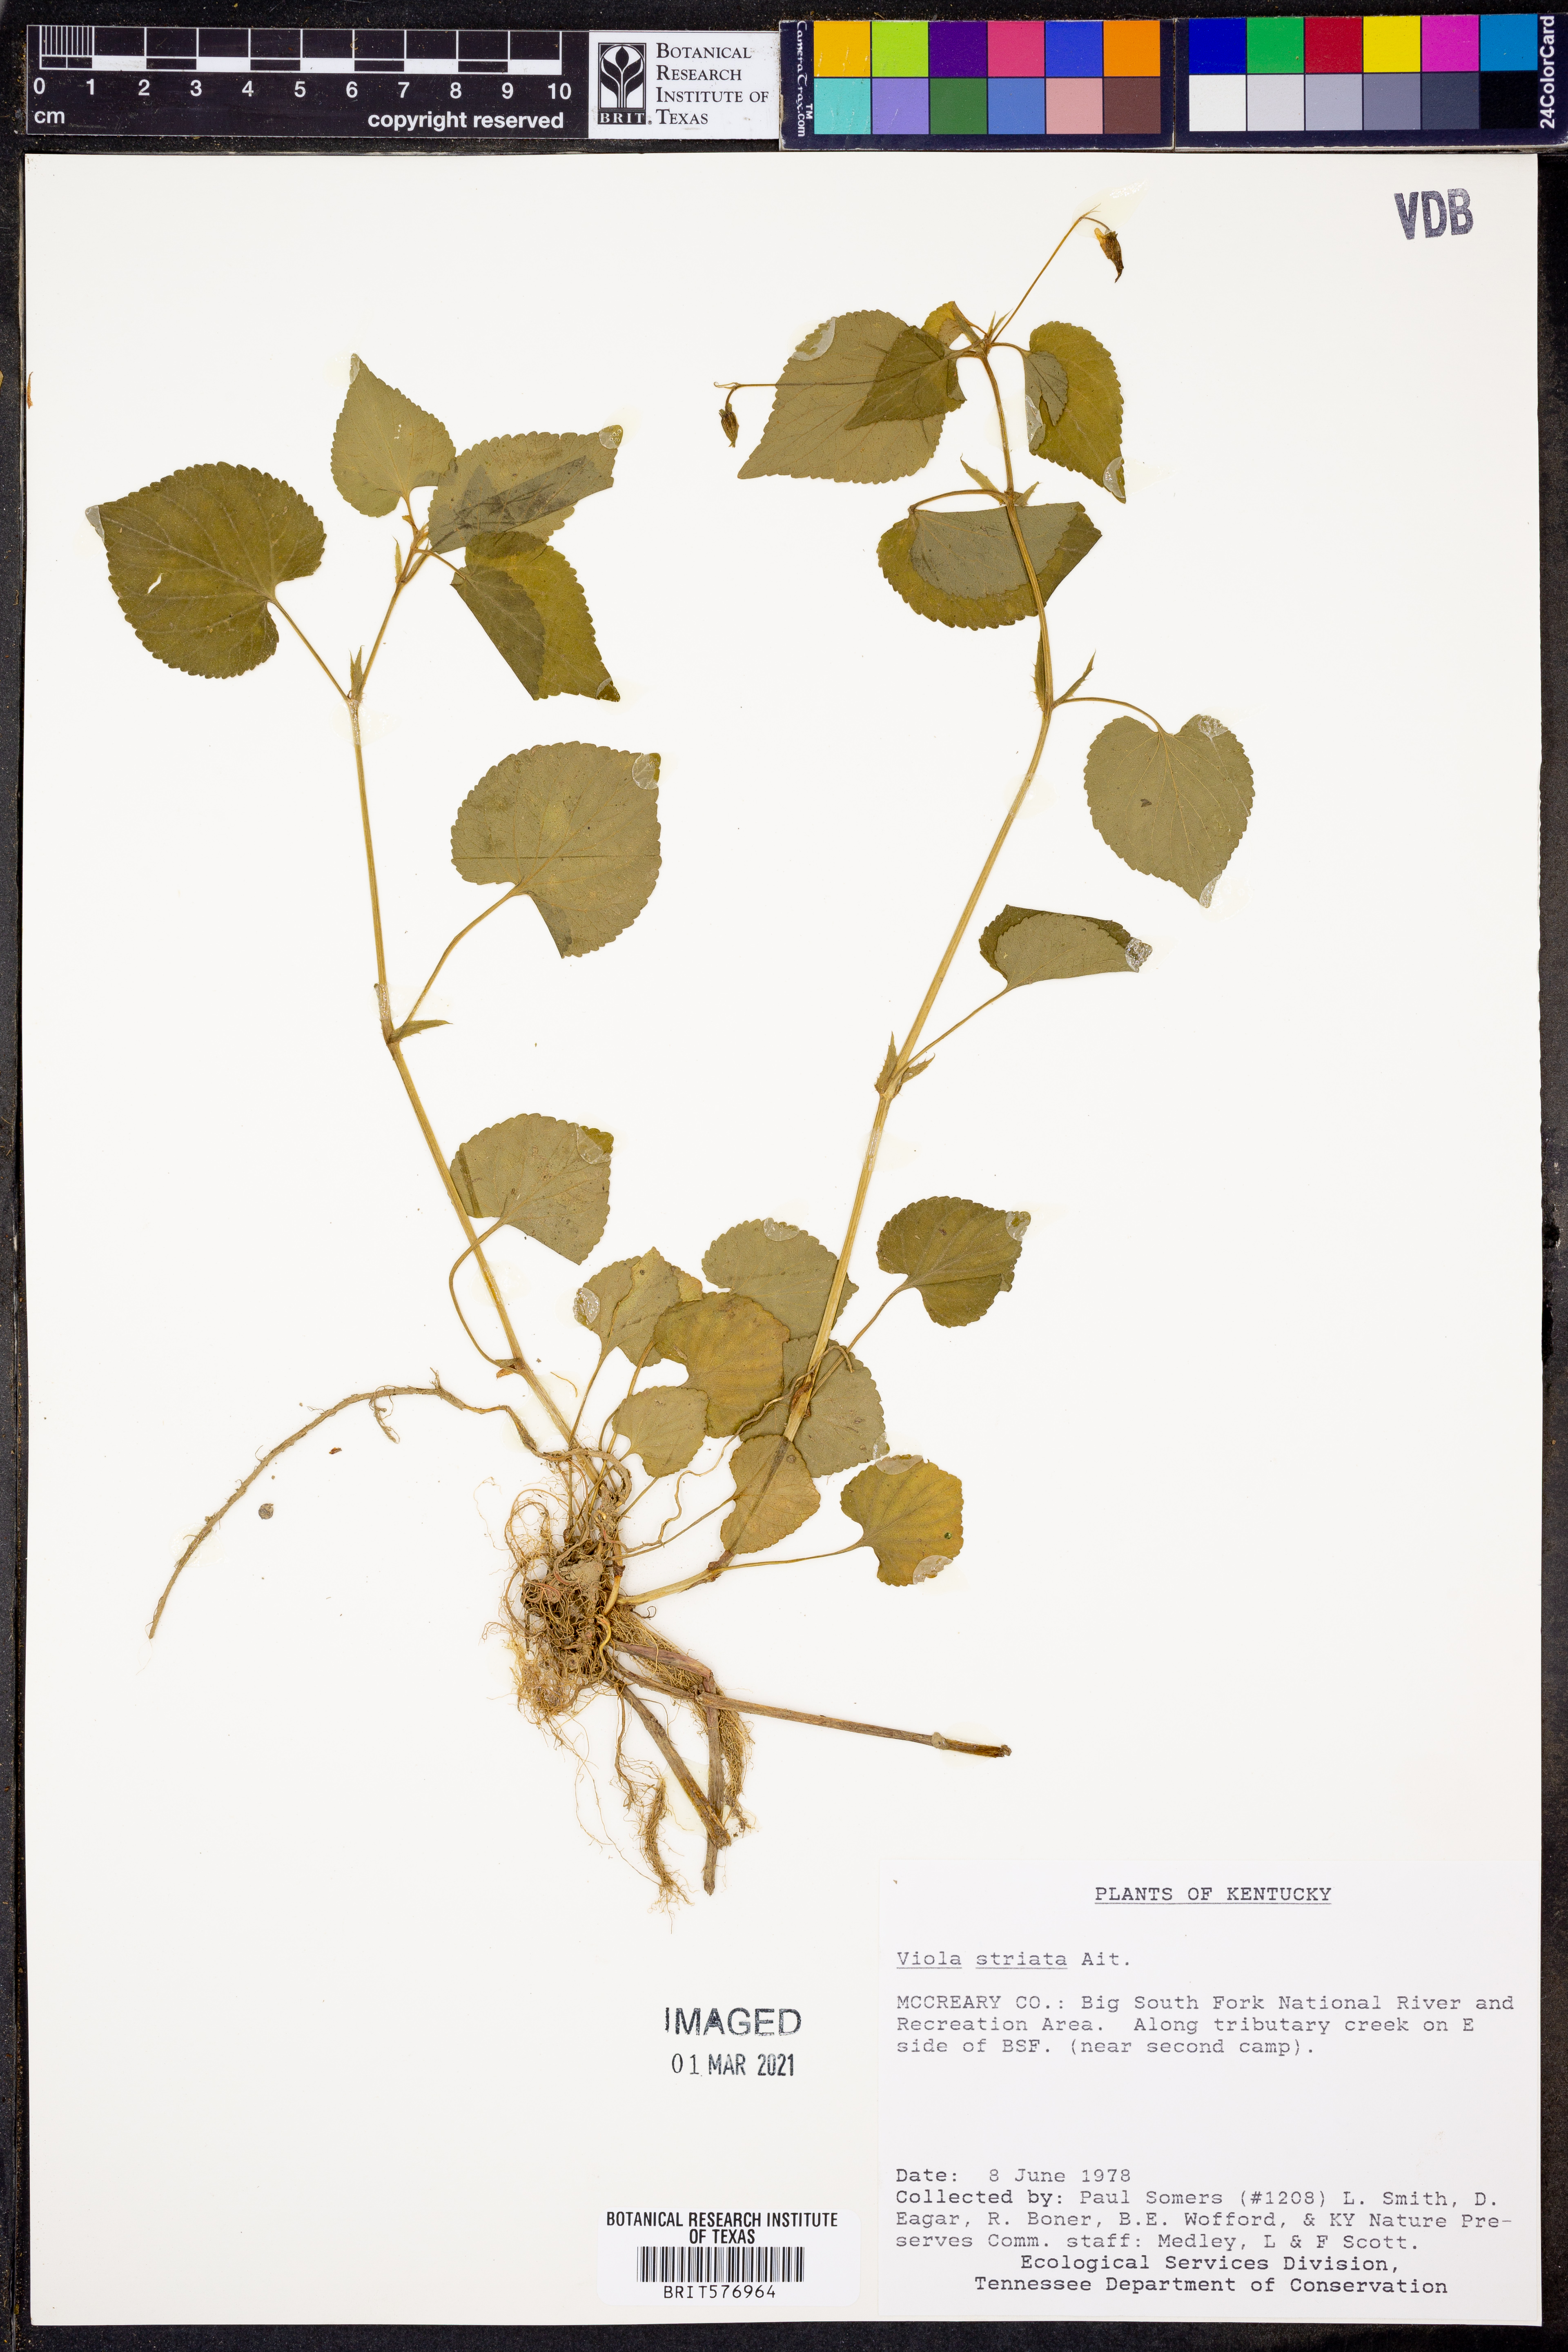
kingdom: Plantae
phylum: Tracheophyta
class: Magnoliopsida
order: Malpighiales
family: Violaceae
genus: Viola
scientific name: Viola striata
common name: Cream violet
